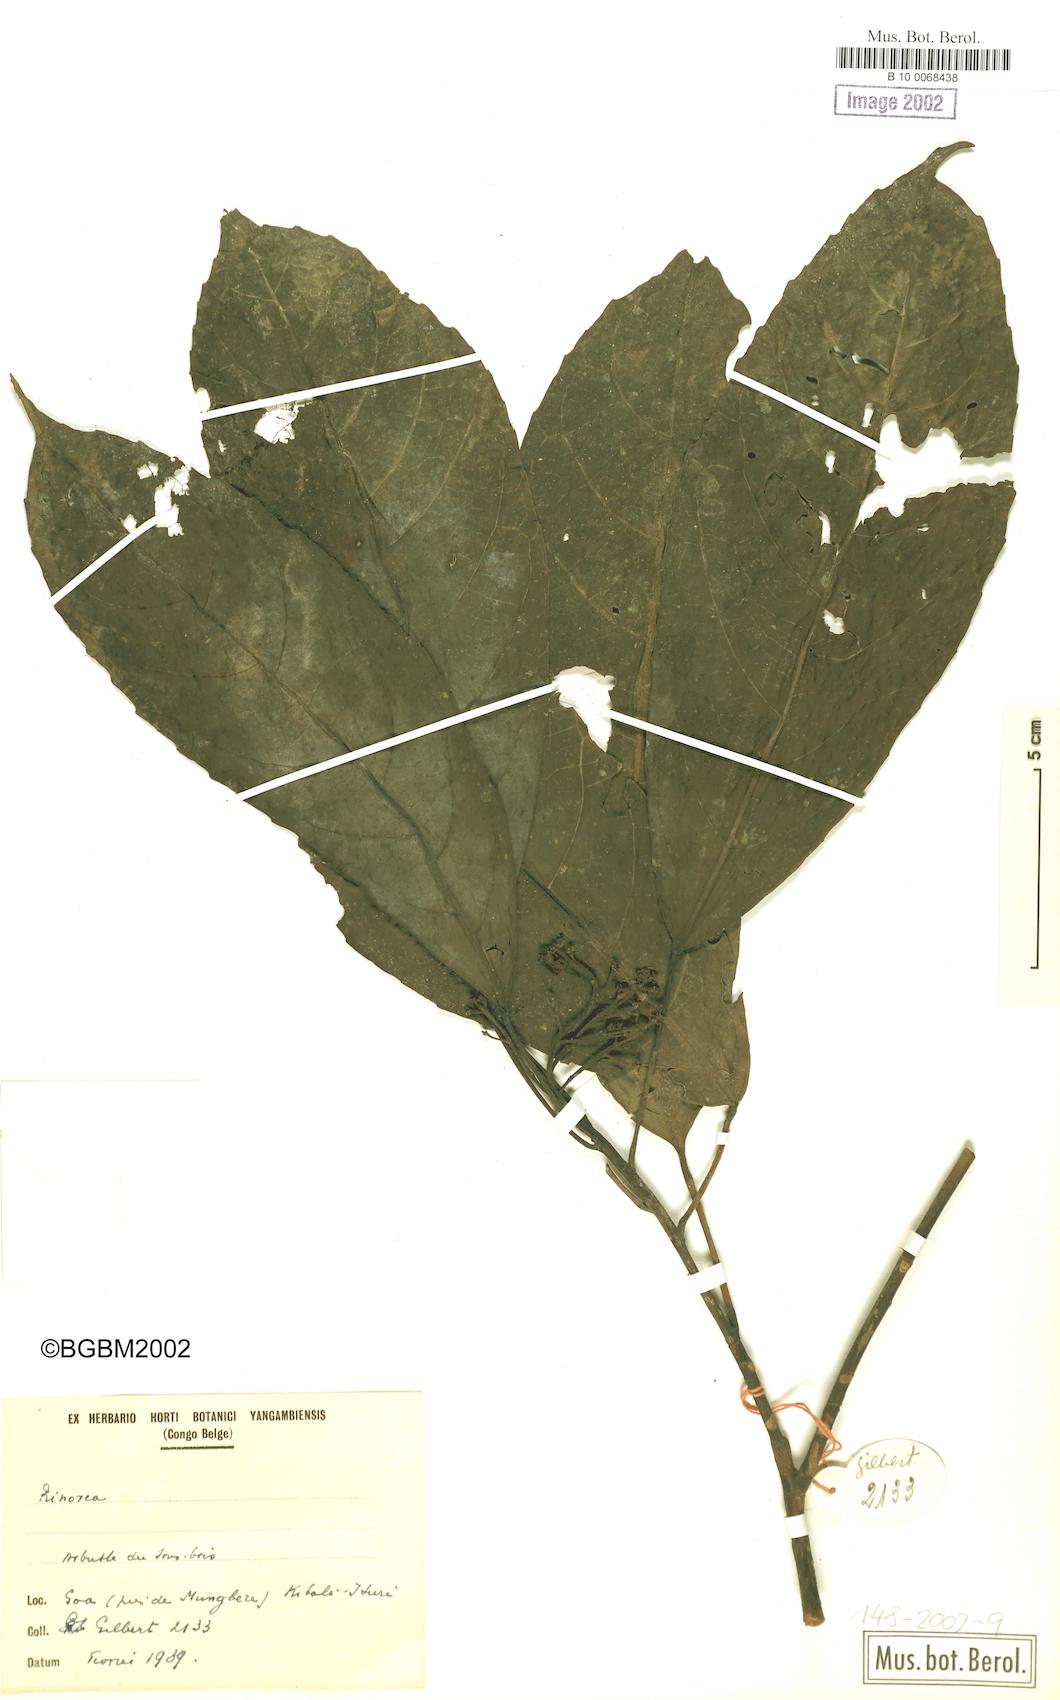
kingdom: Plantae
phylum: Tracheophyta
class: Magnoliopsida
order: Malpighiales
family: Violaceae
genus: Rinorea
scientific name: Rinorea
